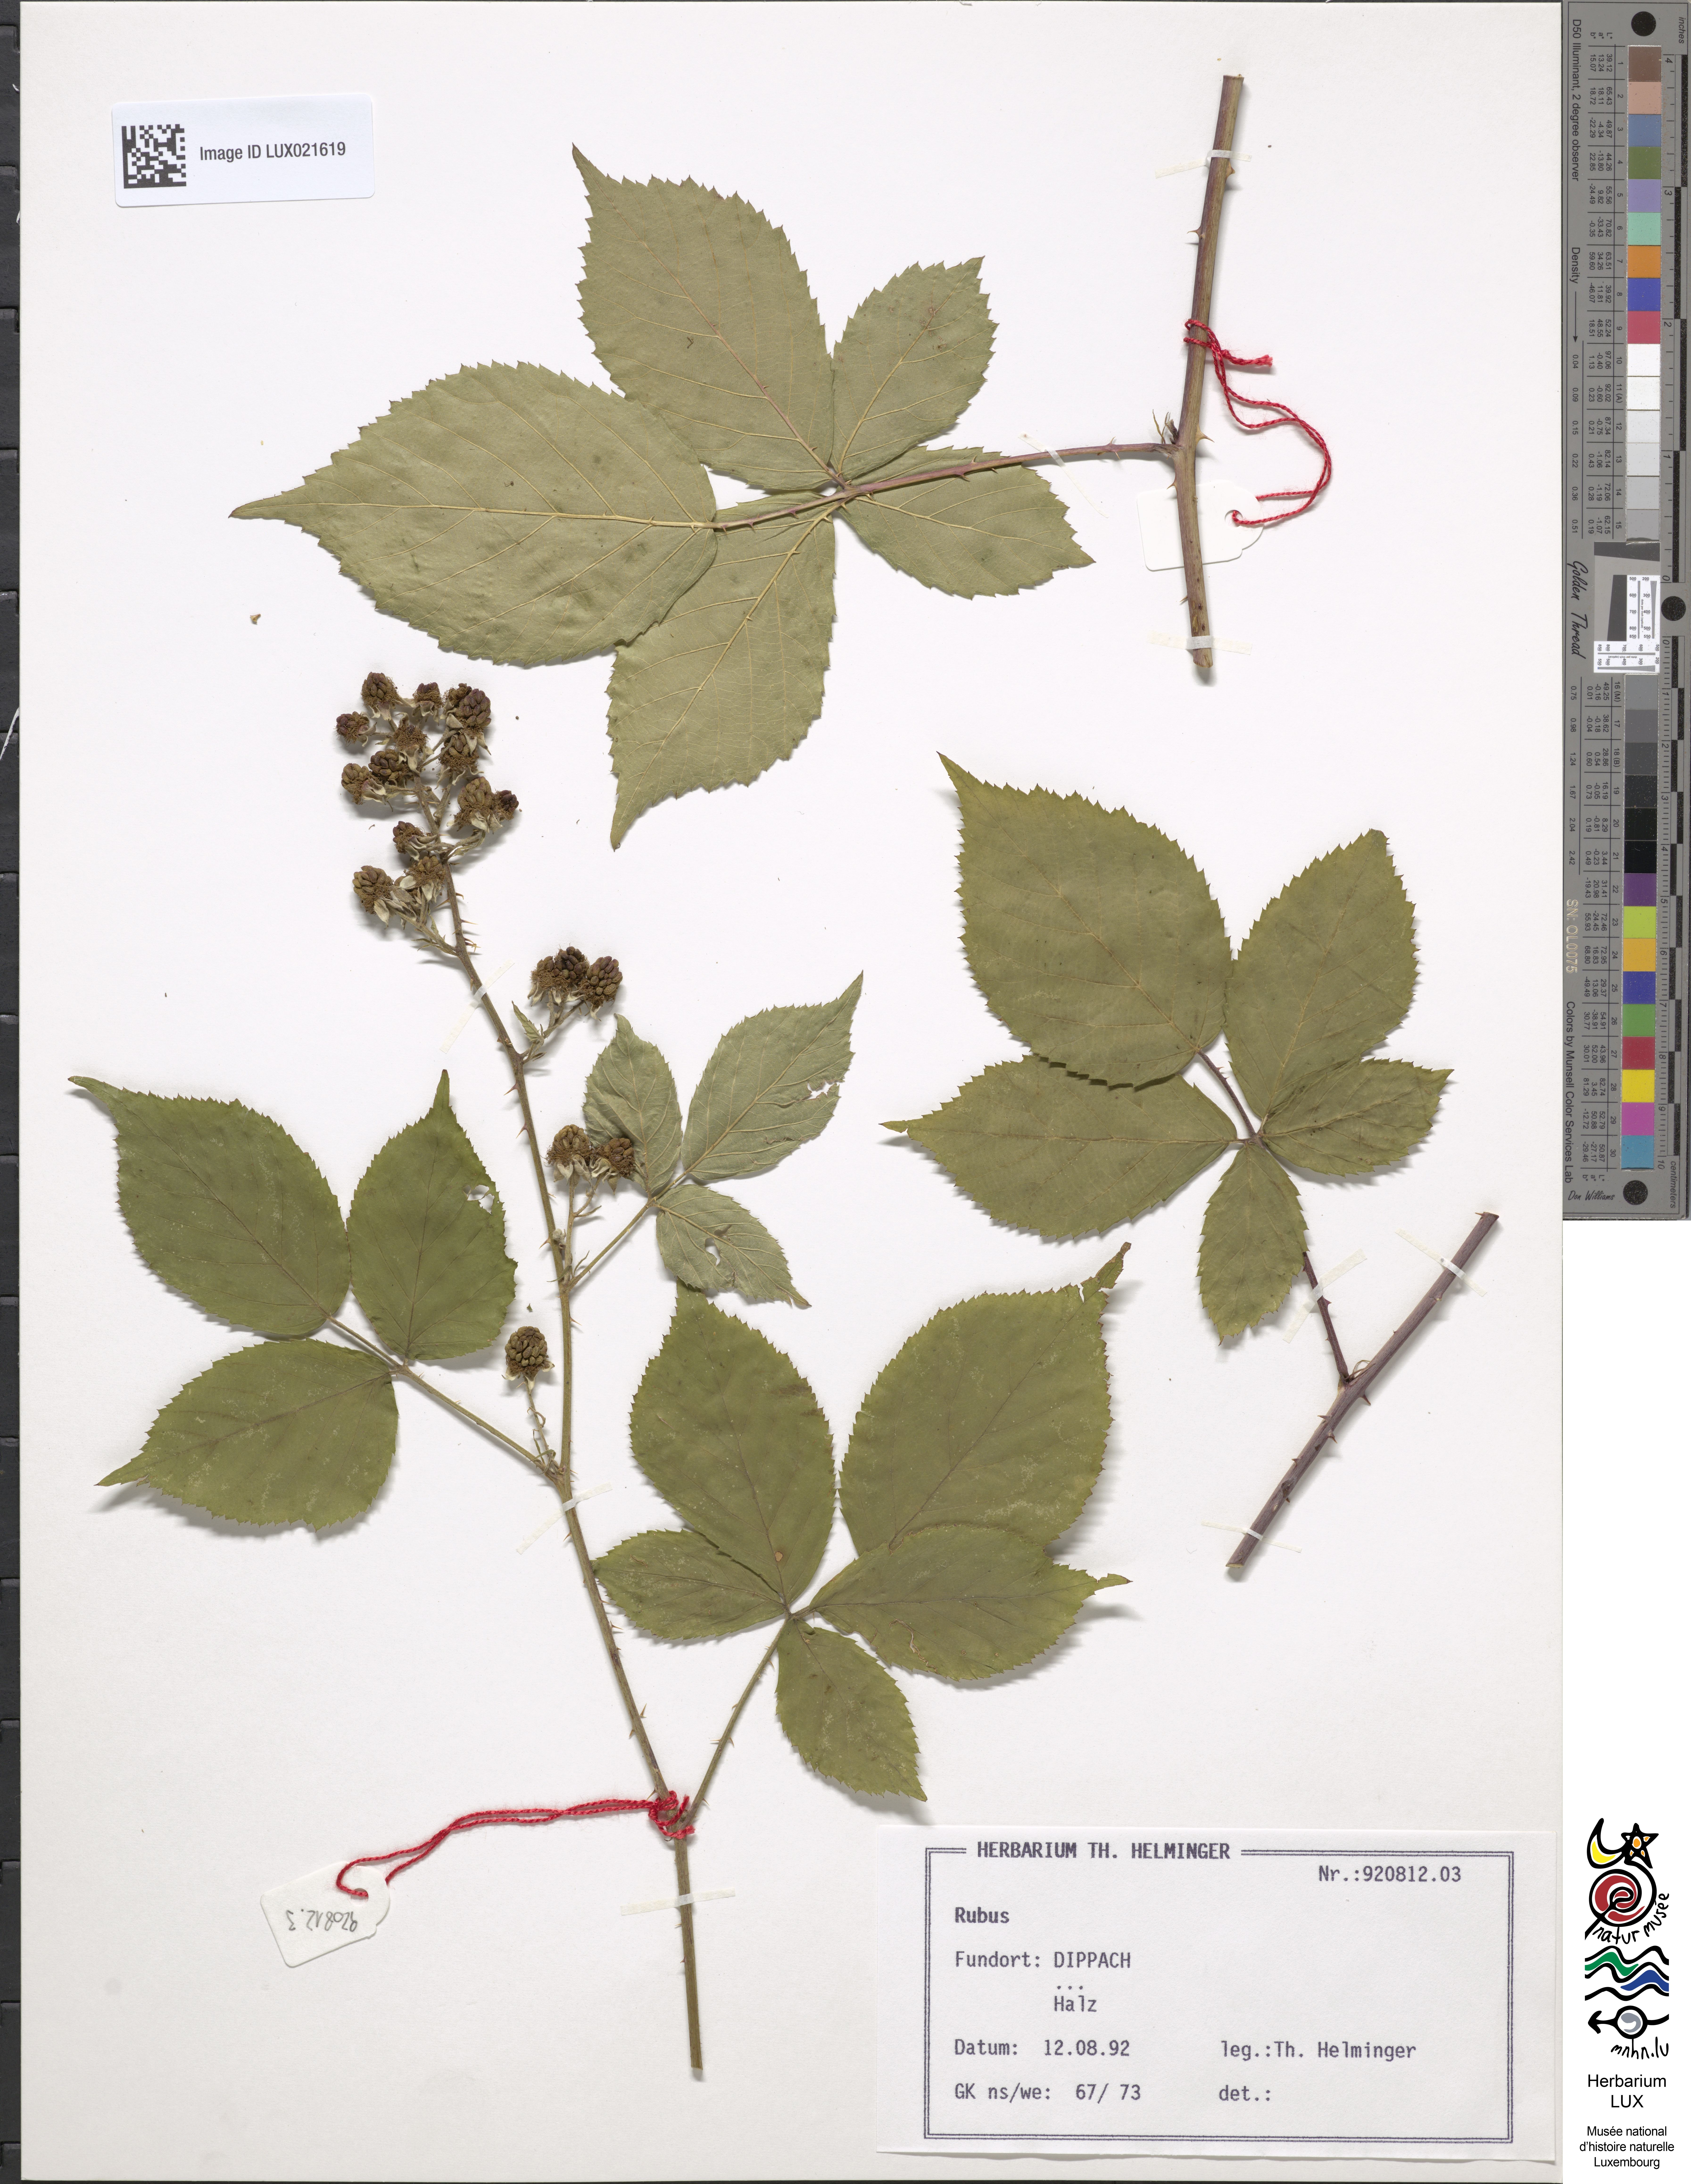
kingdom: Plantae
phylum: Tracheophyta
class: Magnoliopsida
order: Rosales
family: Rosaceae
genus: Rubus
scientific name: Rubus
